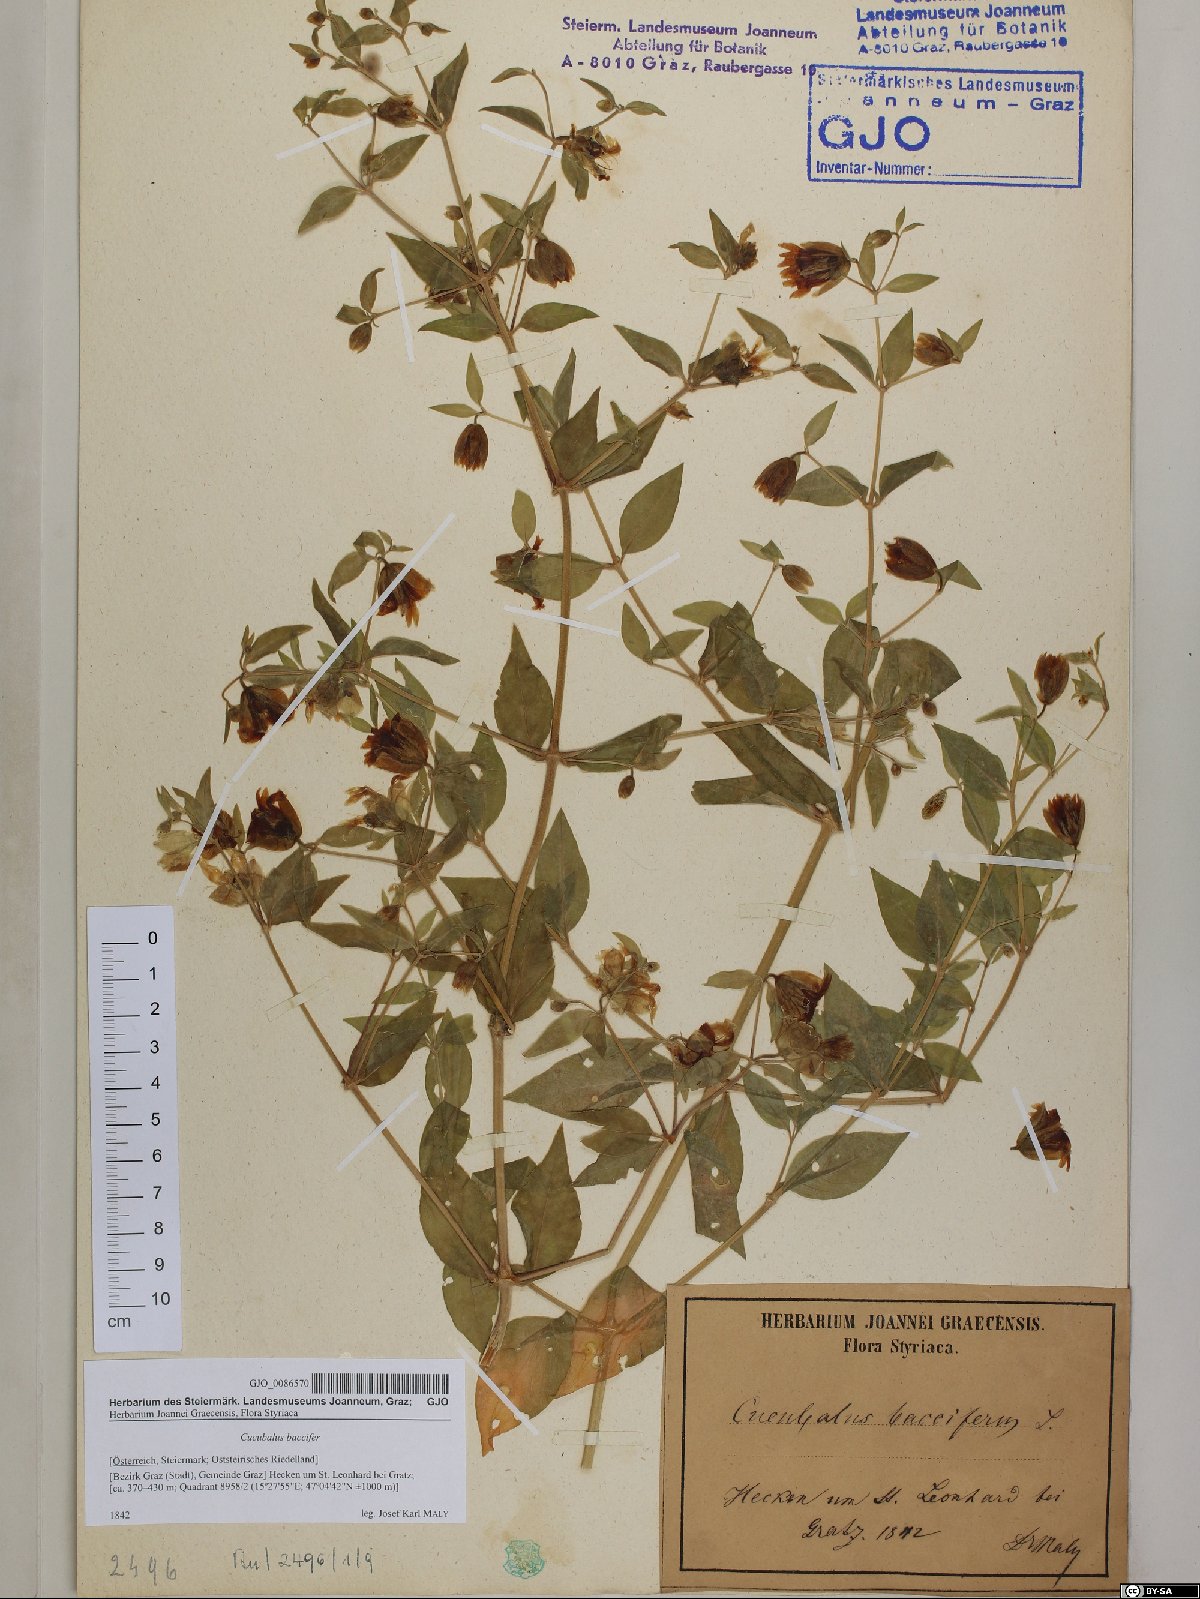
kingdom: Plantae
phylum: Tracheophyta
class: Magnoliopsida
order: Caryophyllales
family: Caryophyllaceae
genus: Silene
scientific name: Silene baccifera
